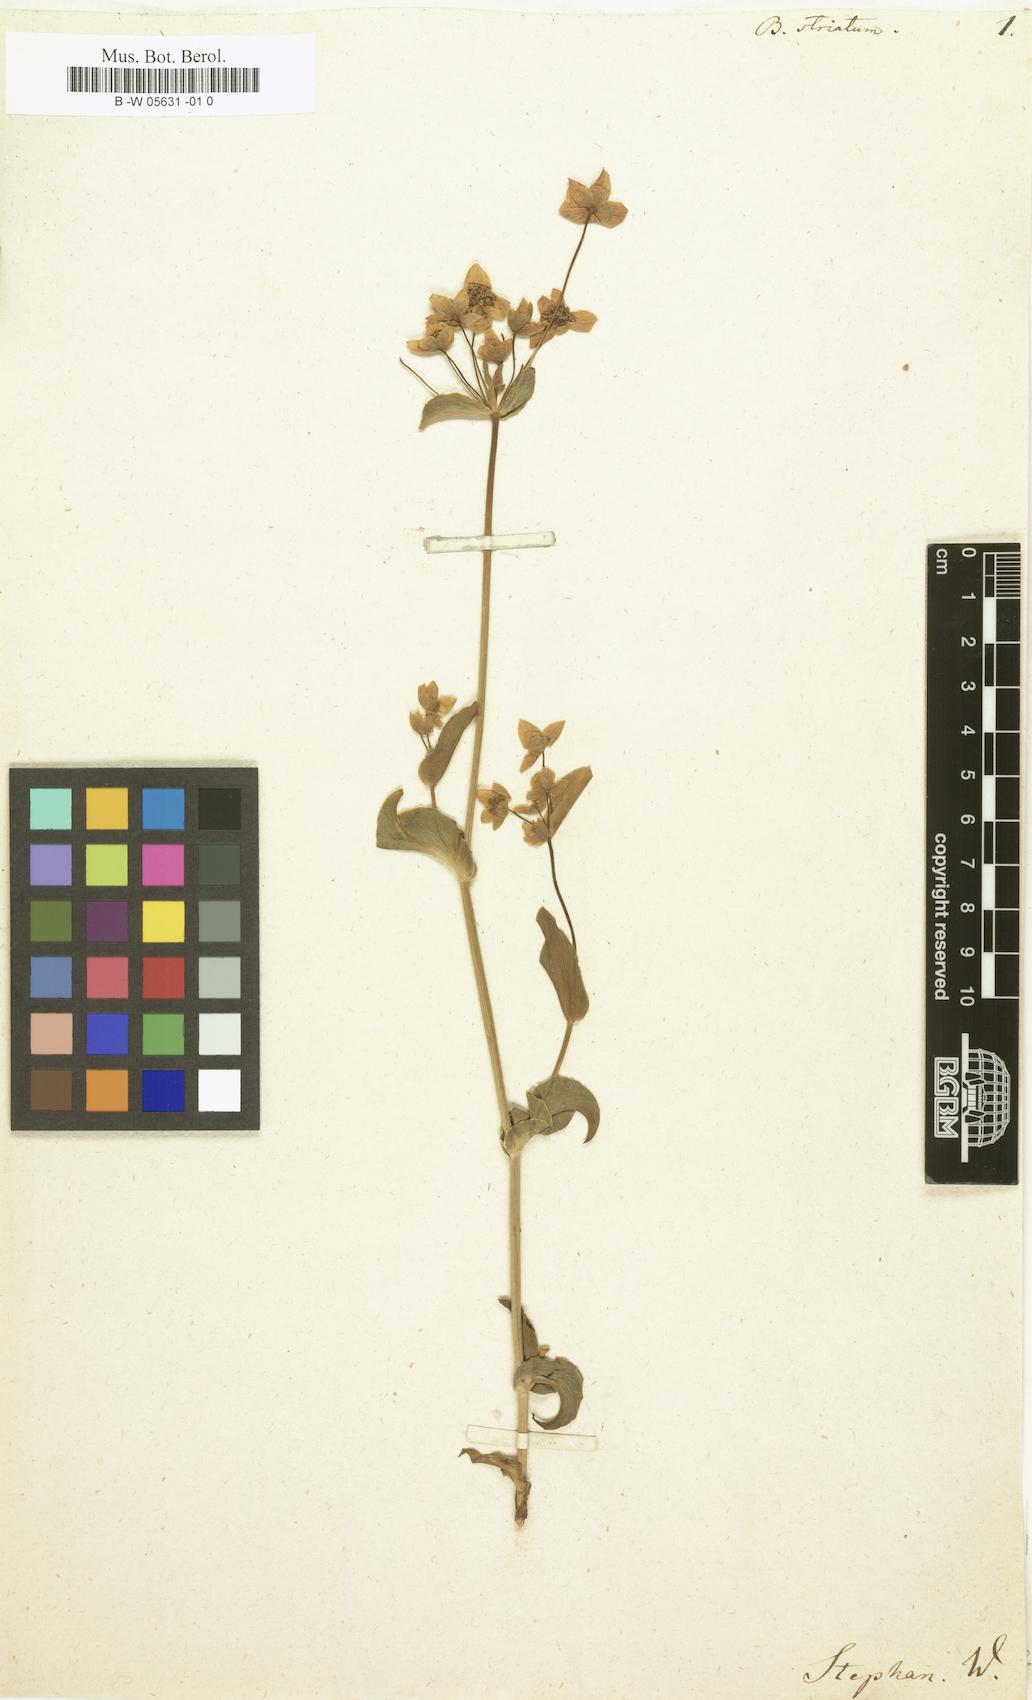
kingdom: Plantae
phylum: Tracheophyta
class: Magnoliopsida
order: Apiales
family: Apiaceae
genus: Bupleurum
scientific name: Bupleurum multinerve
